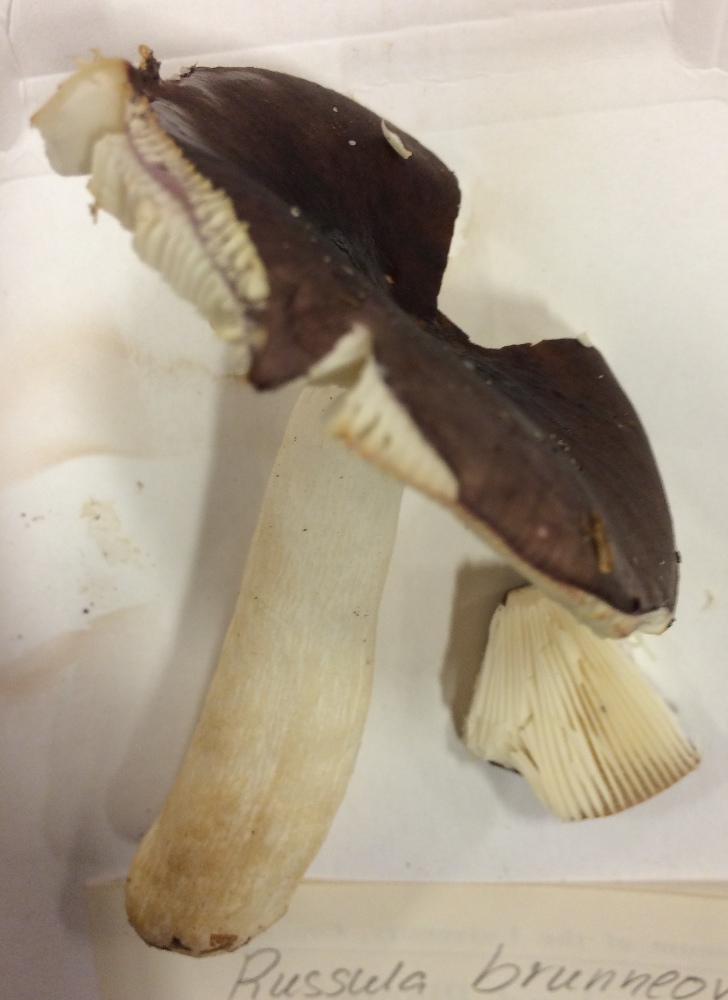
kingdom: Fungi
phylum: Basidiomycota
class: Agaricomycetes
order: Russulales
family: Russulaceae
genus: Russula
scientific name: Russula brunneoviolacea
